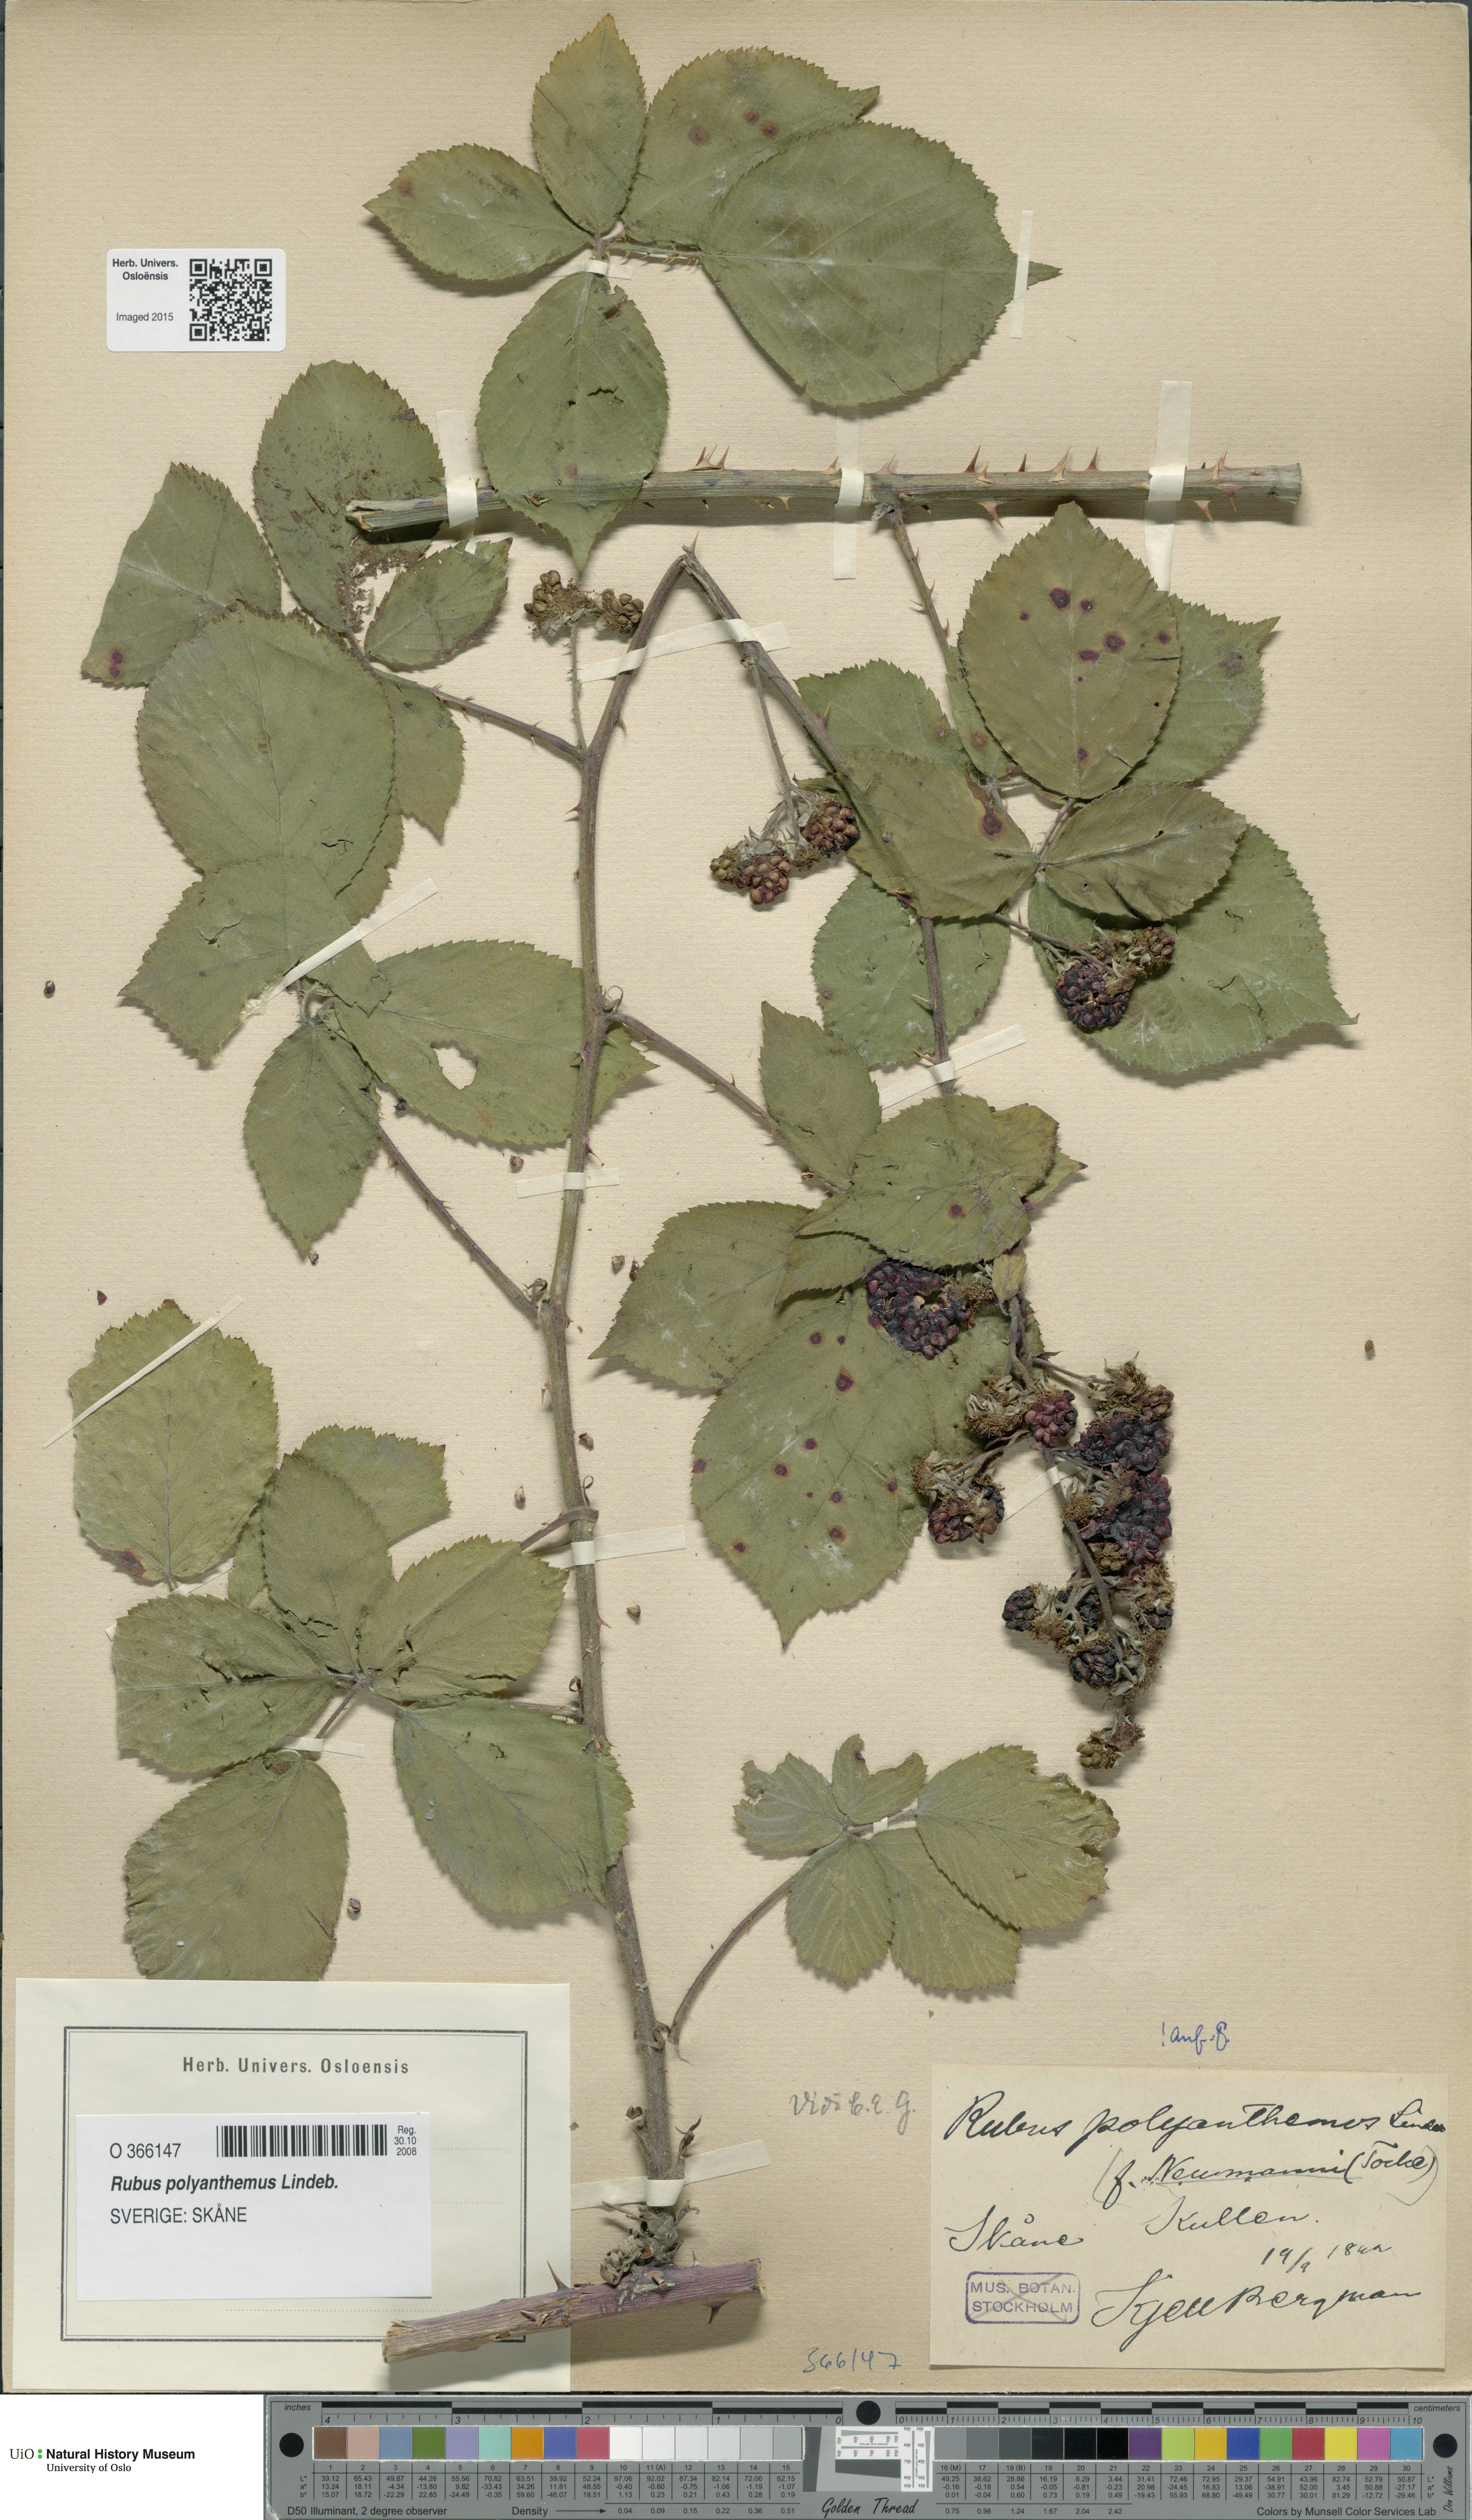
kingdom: Plantae
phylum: Tracheophyta
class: Magnoliopsida
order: Rosales
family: Rosaceae
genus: Rubus
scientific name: Rubus polyanthemus
